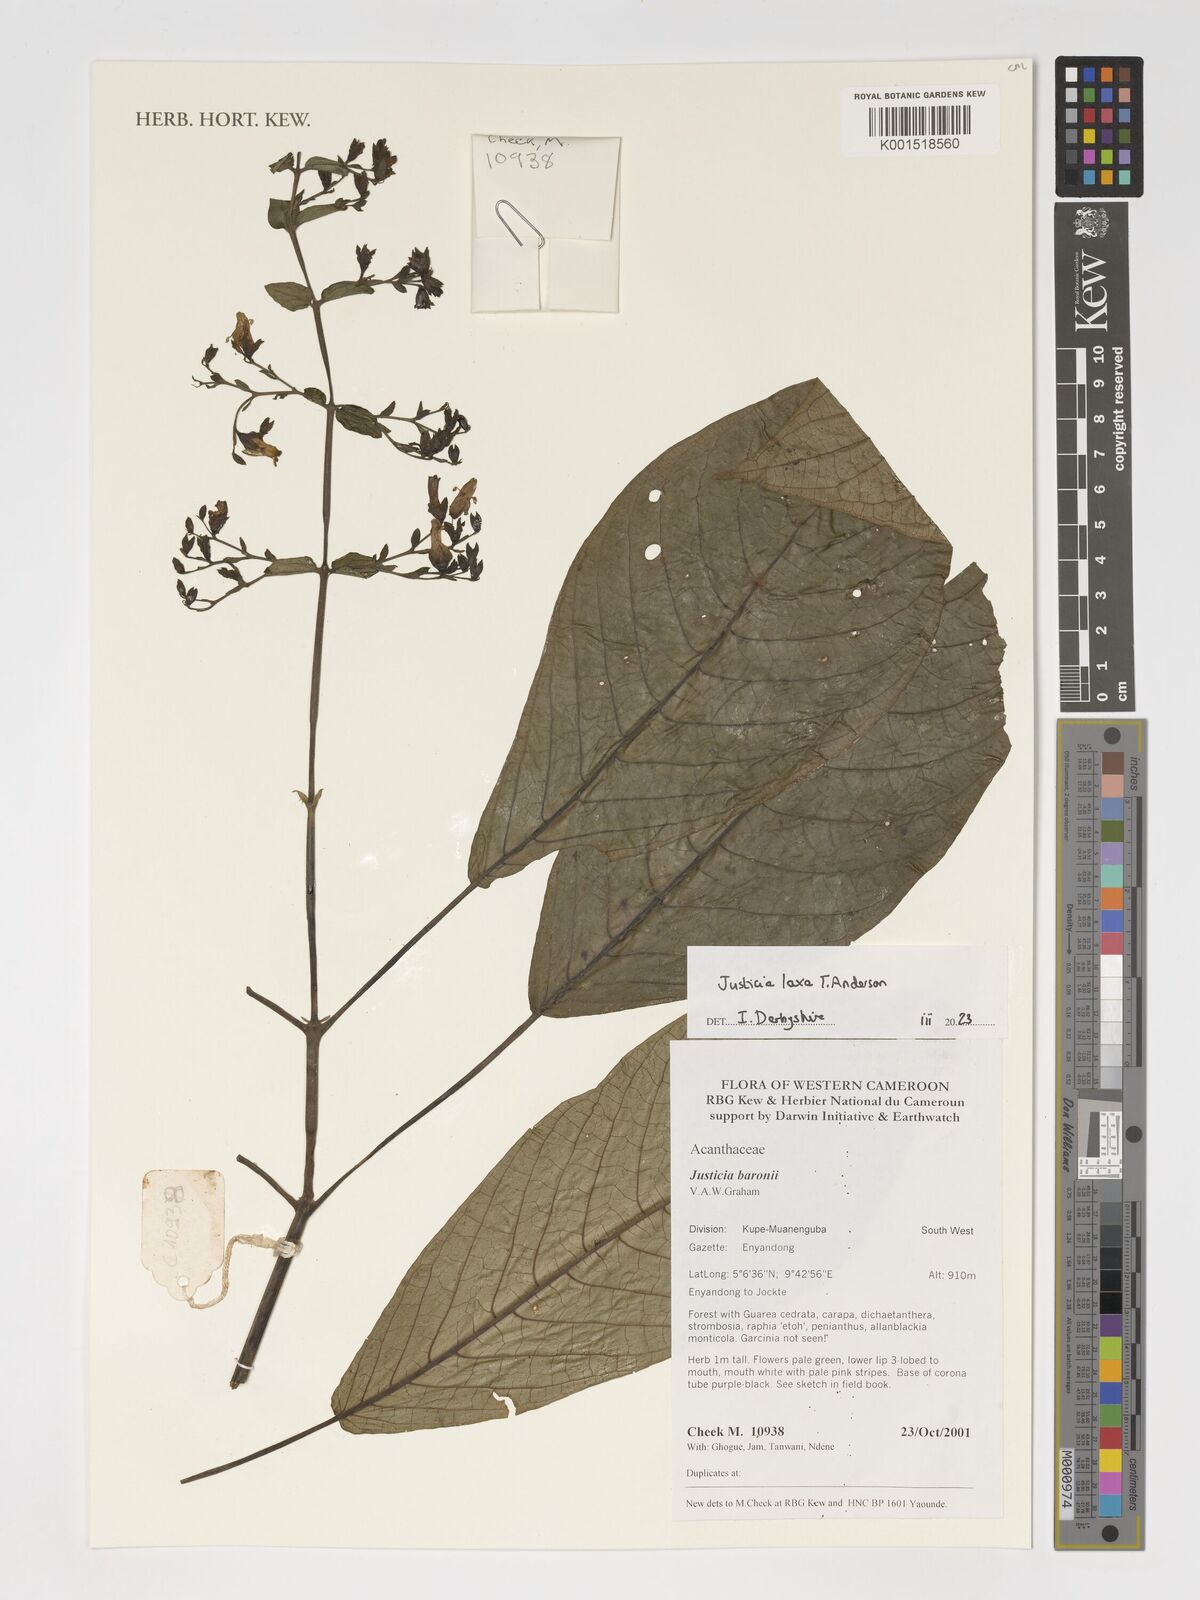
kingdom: Plantae
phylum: Tracheophyta
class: Magnoliopsida
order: Lamiales
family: Acanthaceae
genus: Justicia
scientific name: Justicia laxa
